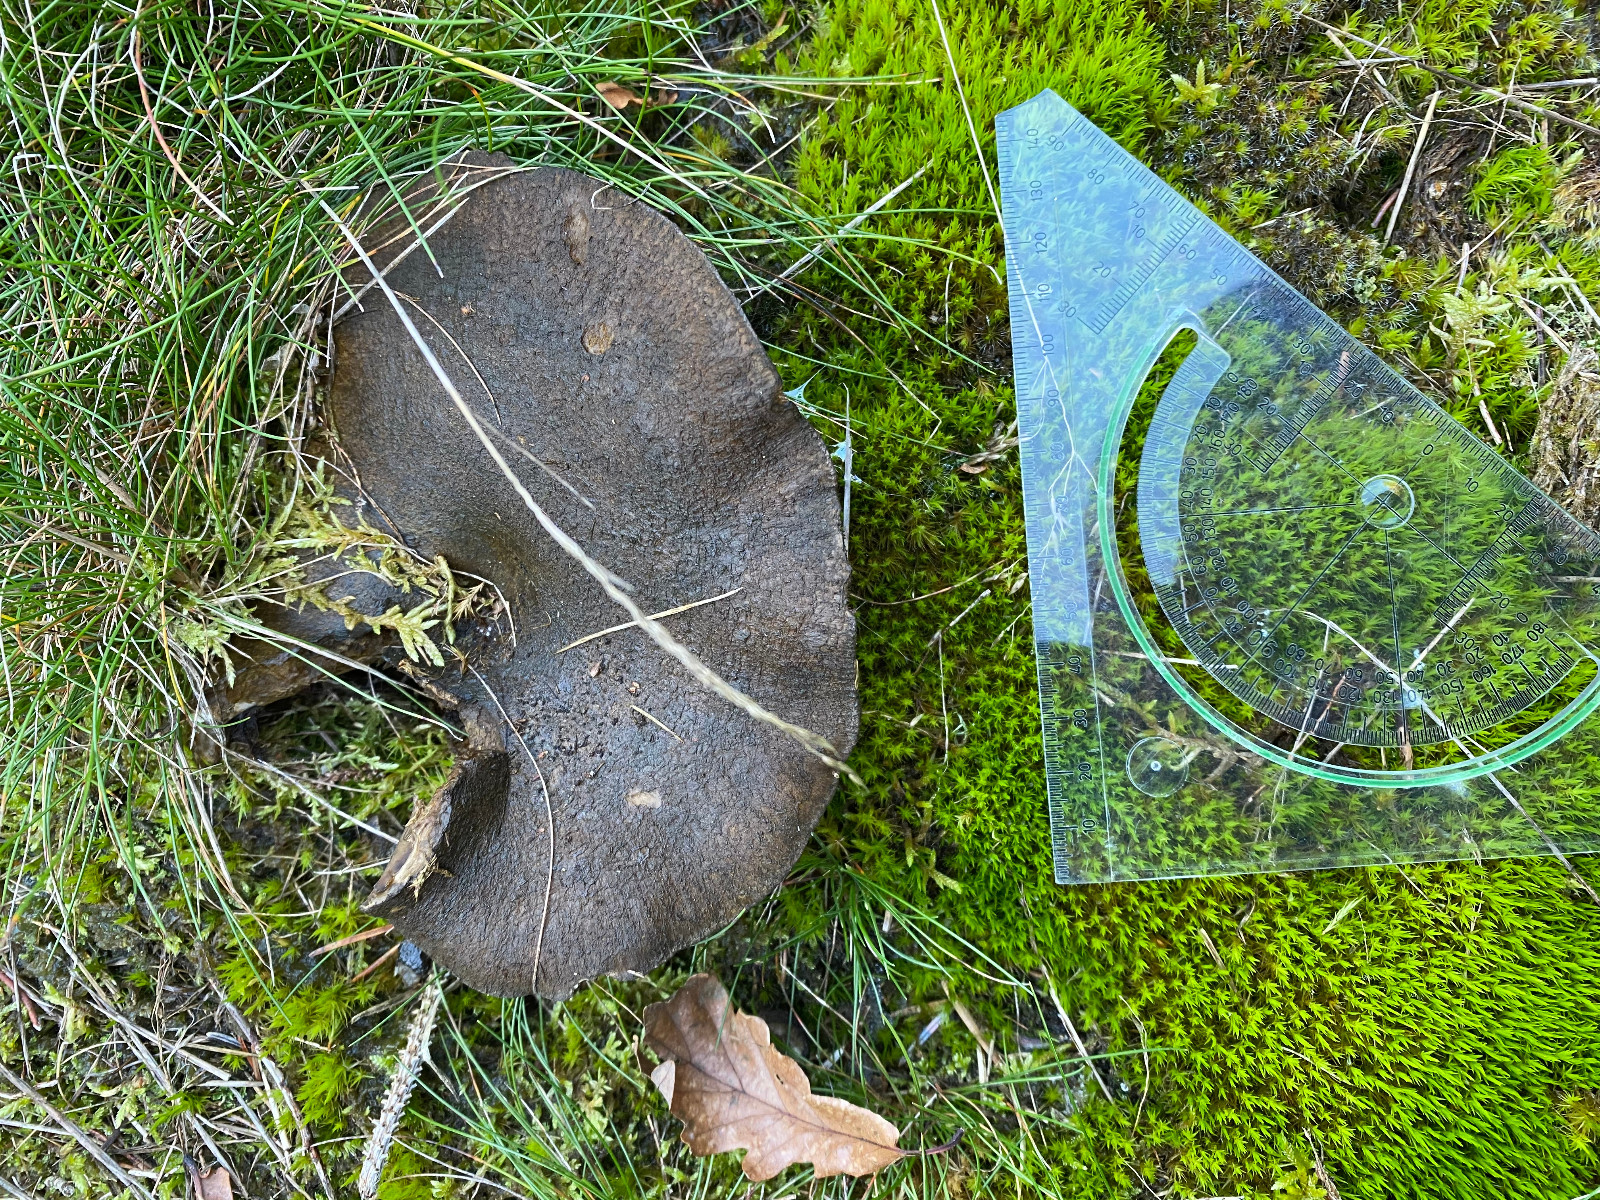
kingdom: Fungi
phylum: Basidiomycota
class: Agaricomycetes
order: Russulales
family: Russulaceae
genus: Lactarius
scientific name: Lactarius necator
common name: manddraber-mælkehat
